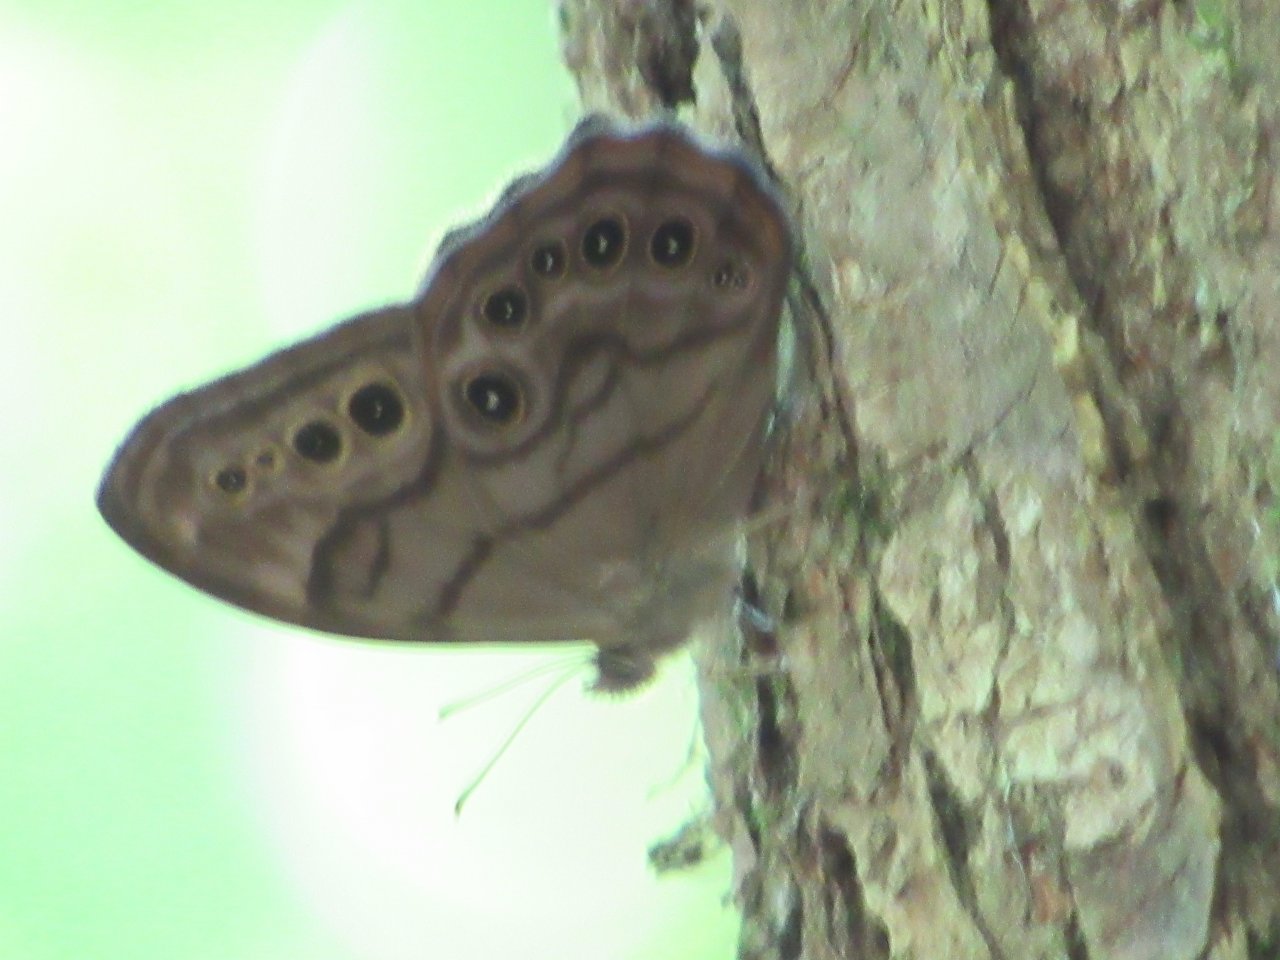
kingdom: Animalia
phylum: Arthropoda
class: Insecta
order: Lepidoptera
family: Nymphalidae
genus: Lethe
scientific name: Lethe anthedon
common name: Northern Pearly-Eye
